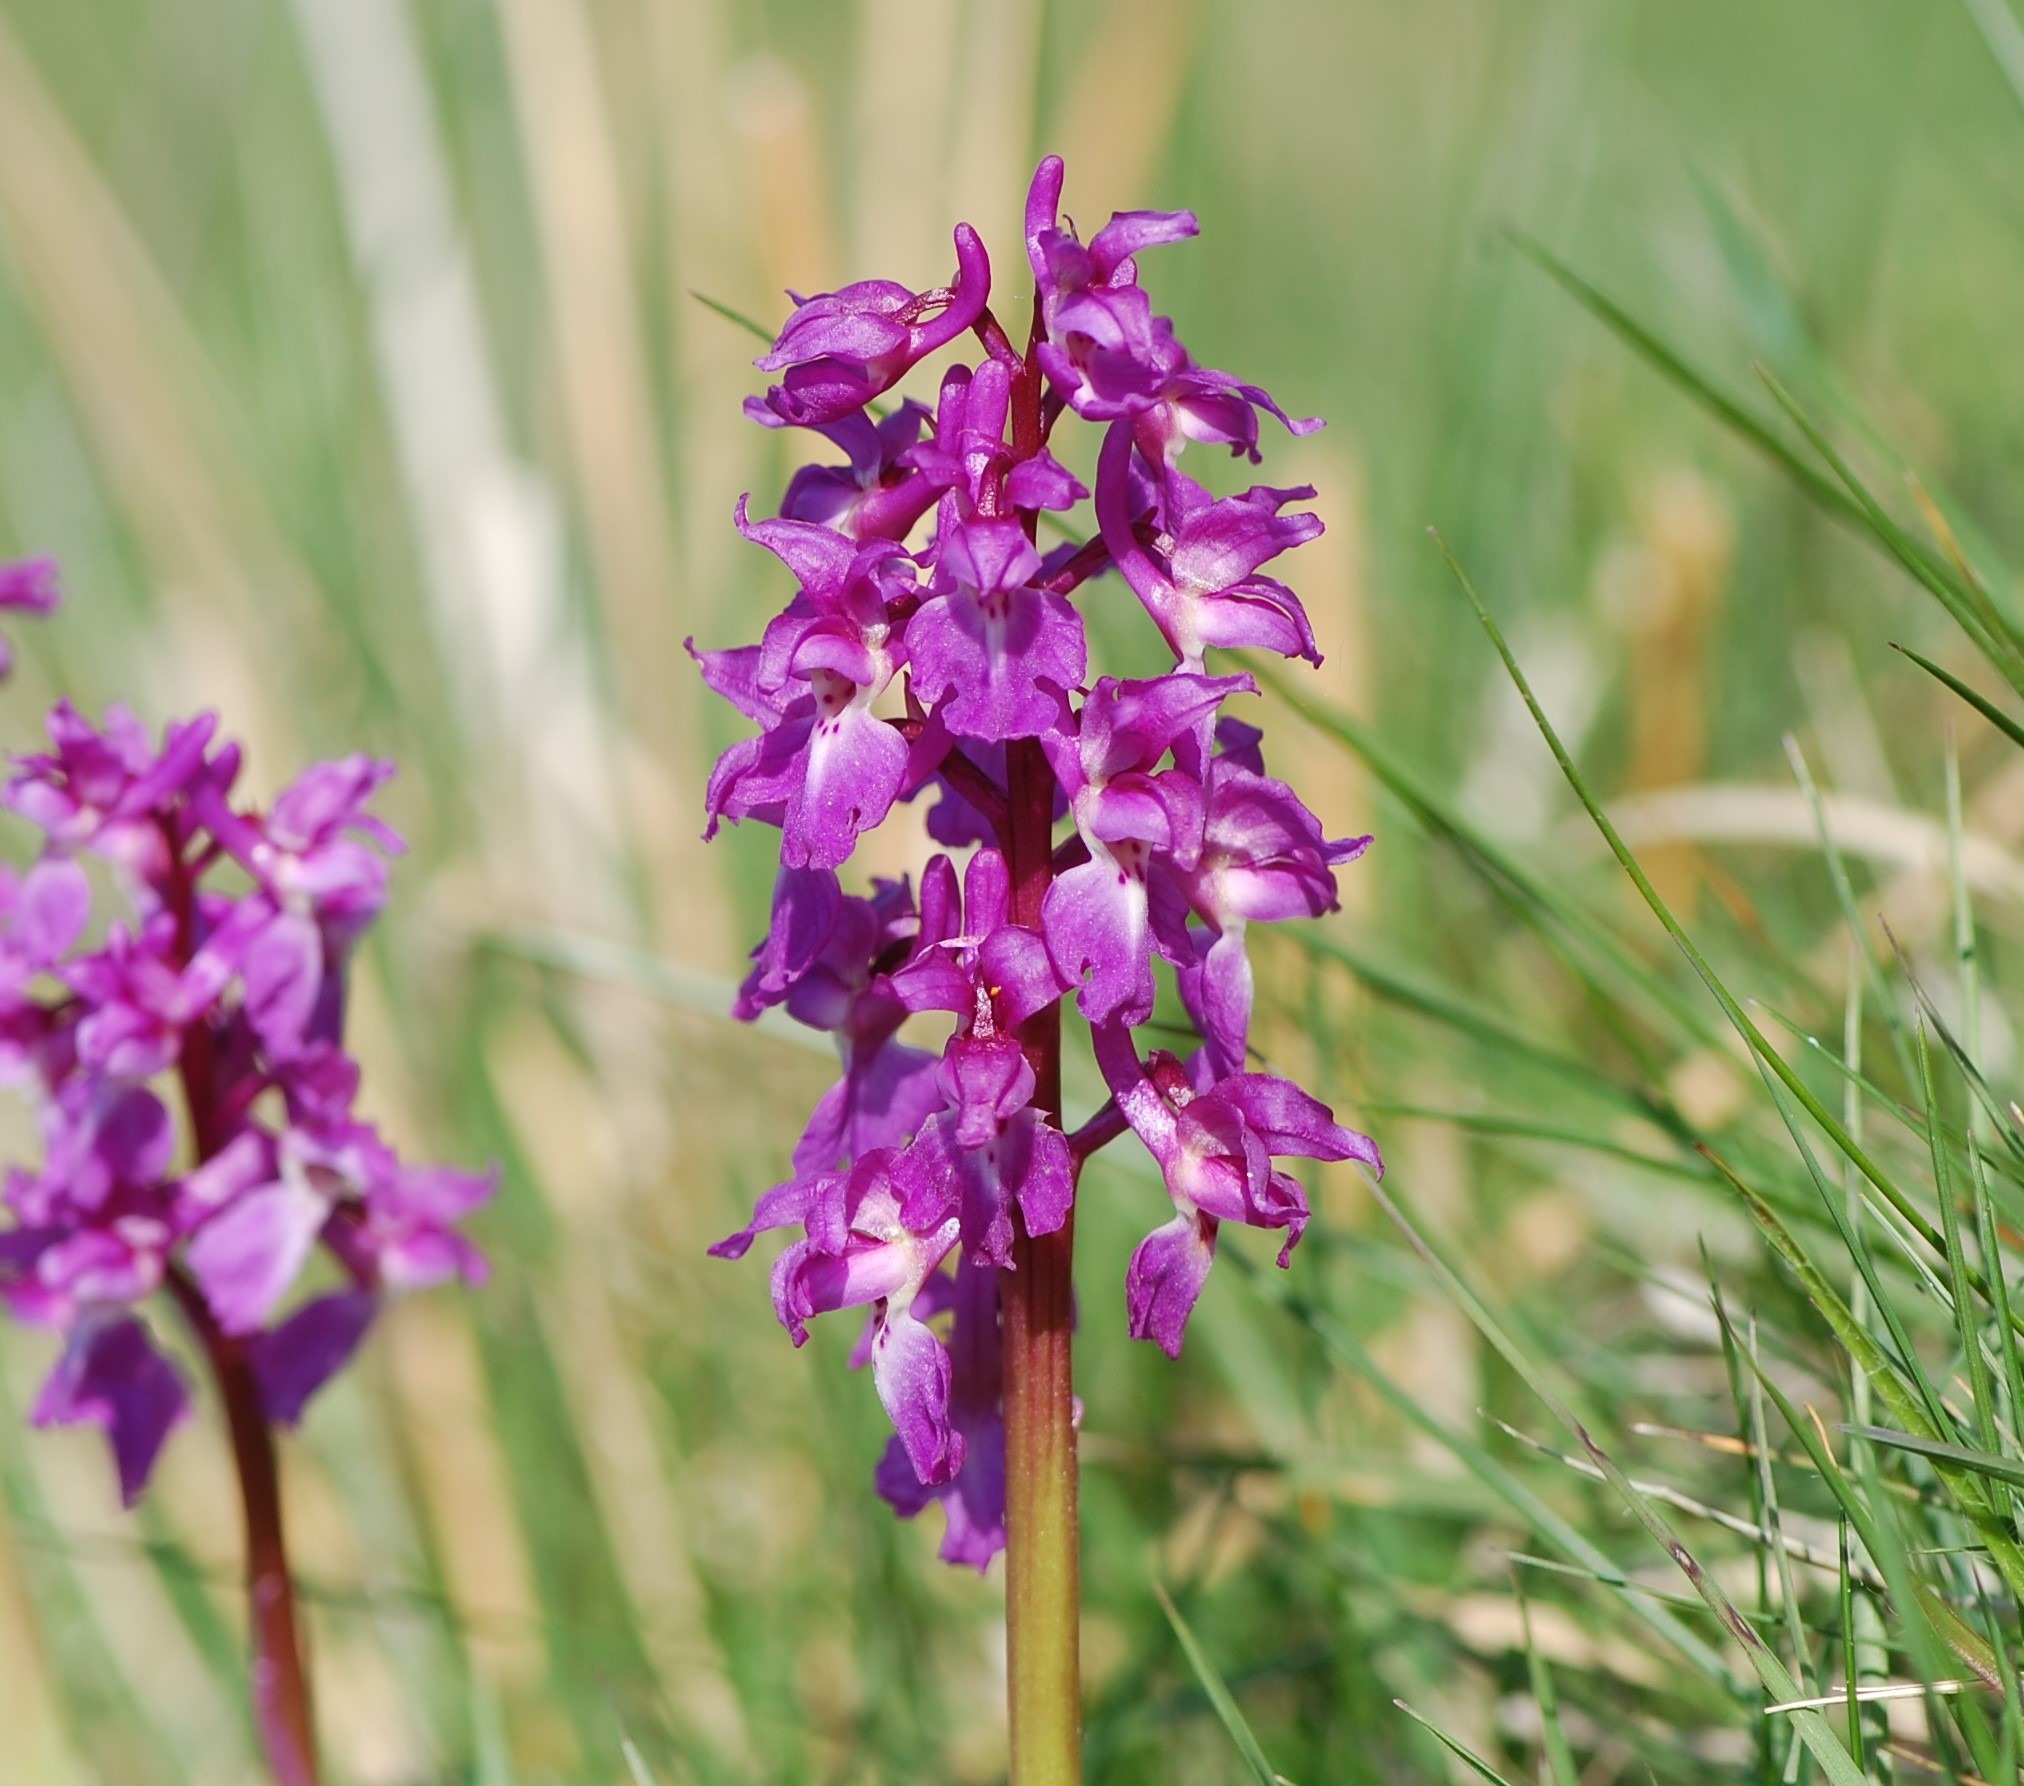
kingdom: Plantae
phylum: Tracheophyta
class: Liliopsida
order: Asparagales
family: Orchidaceae
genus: Orchis
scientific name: Orchis mascula
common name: Tyndakset gøgeurt
